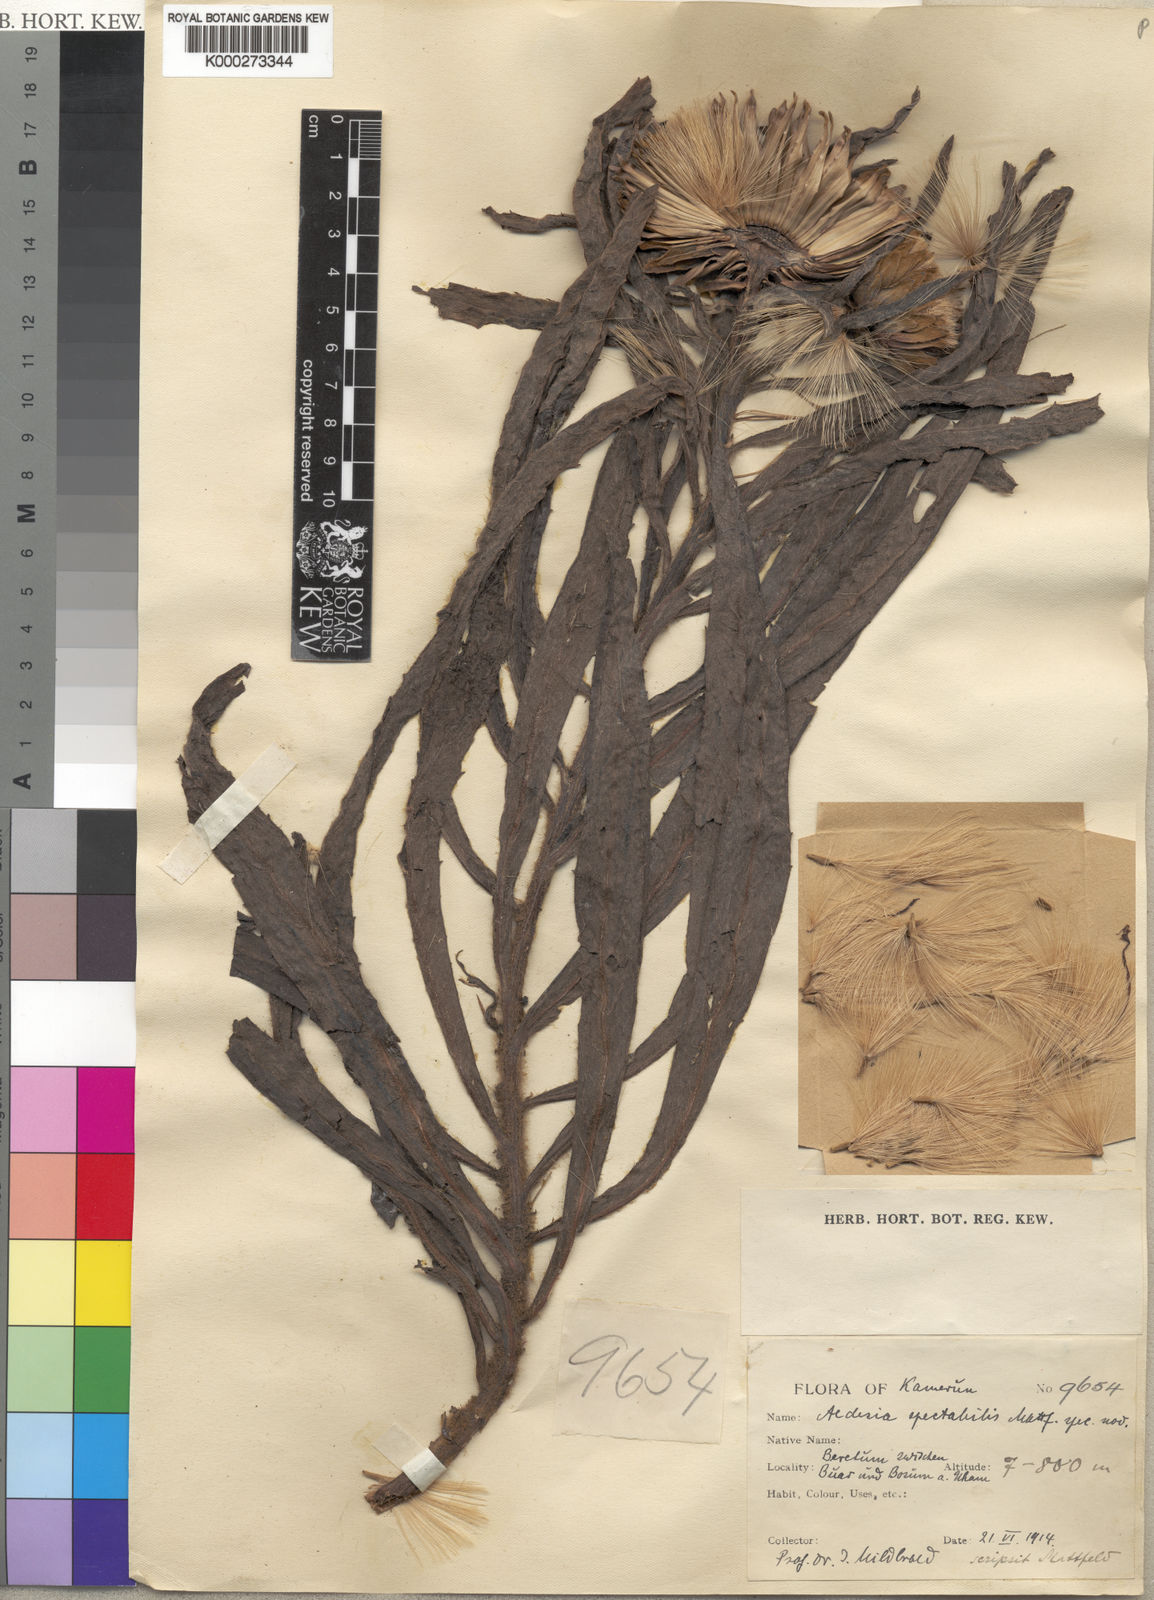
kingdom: Plantae
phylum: Tracheophyta
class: Magnoliopsida
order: Asterales
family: Asteraceae
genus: Aedesia
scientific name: Aedesia spectabilis
